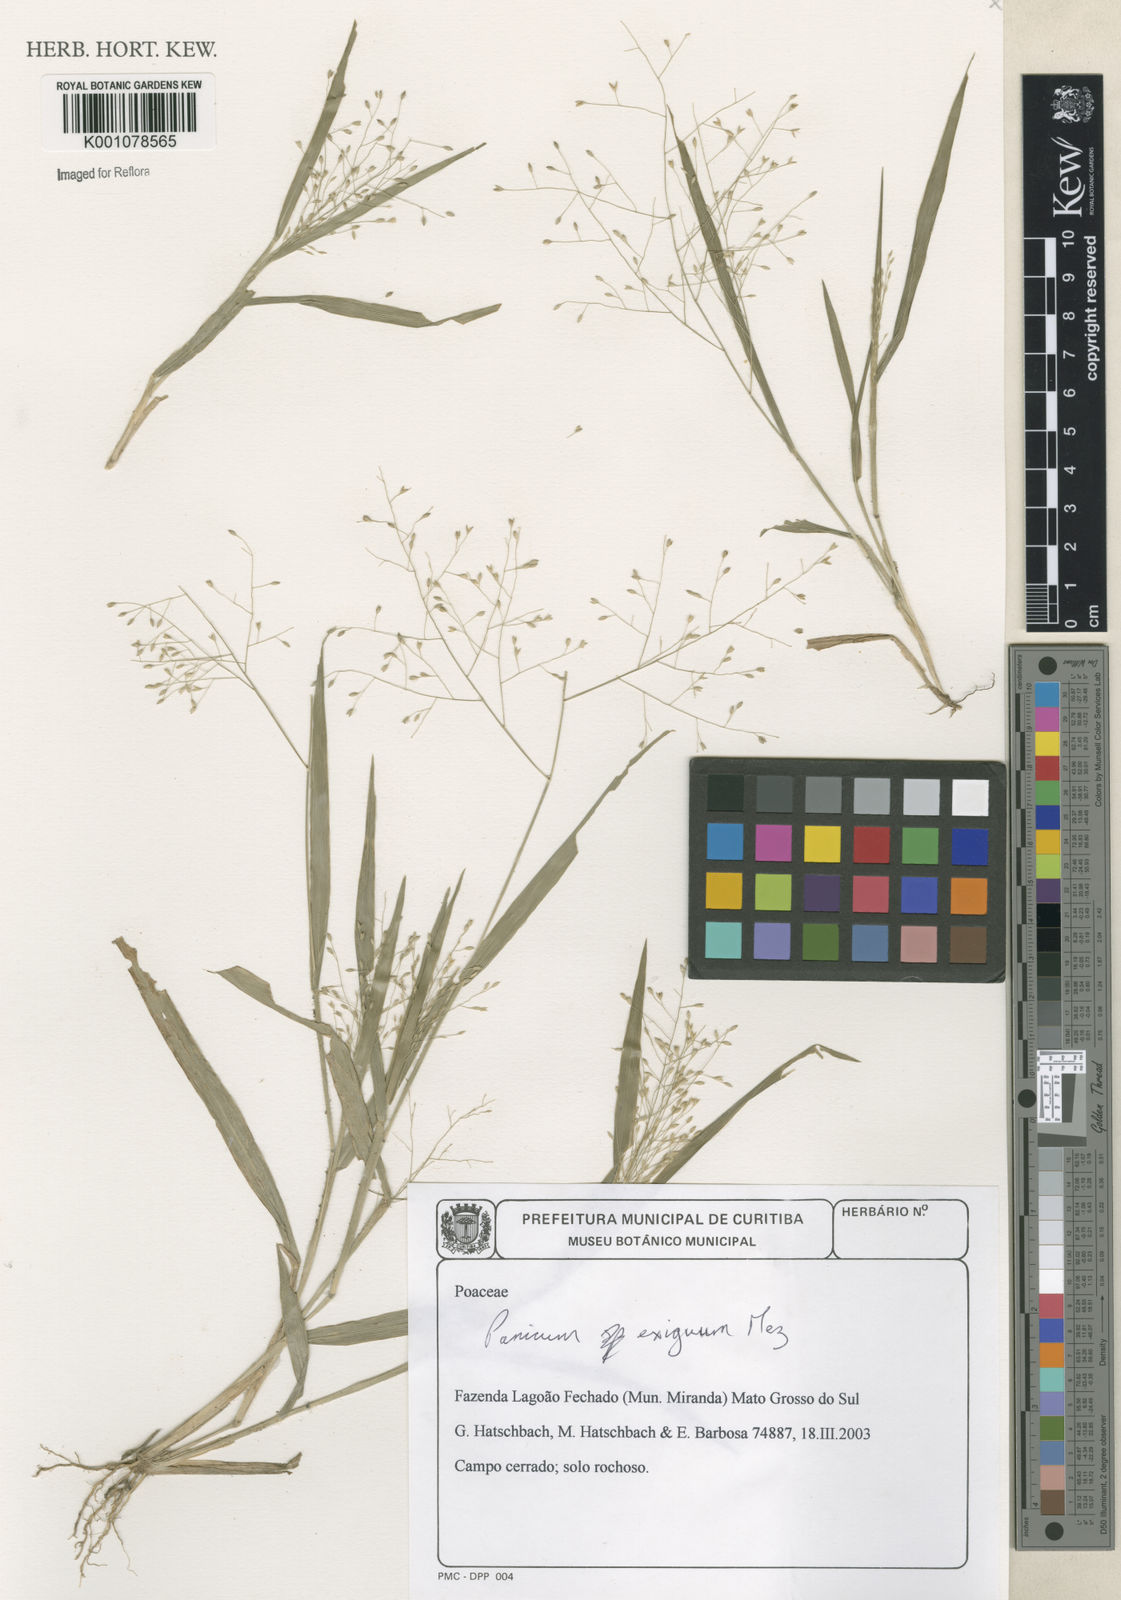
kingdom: Plantae
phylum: Tracheophyta
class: Liliopsida
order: Poales
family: Poaceae
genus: Panicum
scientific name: Panicum exiguum
